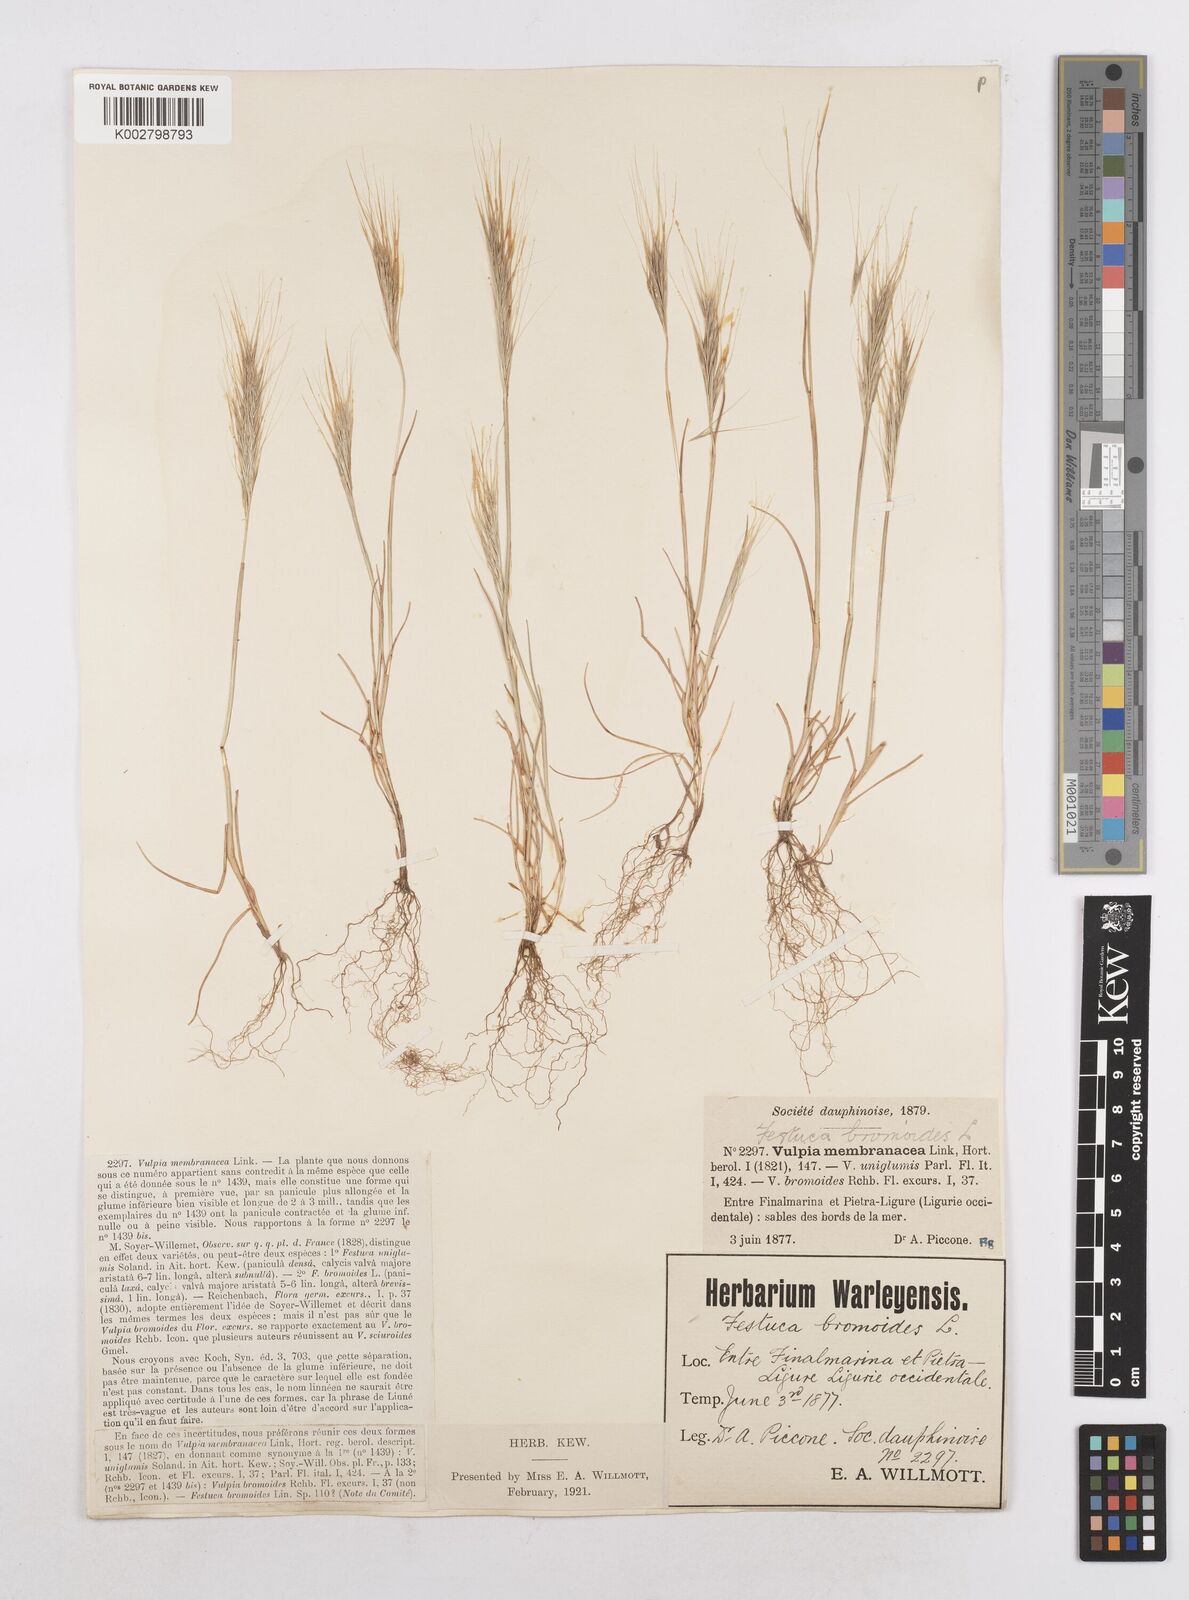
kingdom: Plantae
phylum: Tracheophyta
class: Liliopsida
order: Poales
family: Poaceae
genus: Festuca
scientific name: Festuca fasciculata
